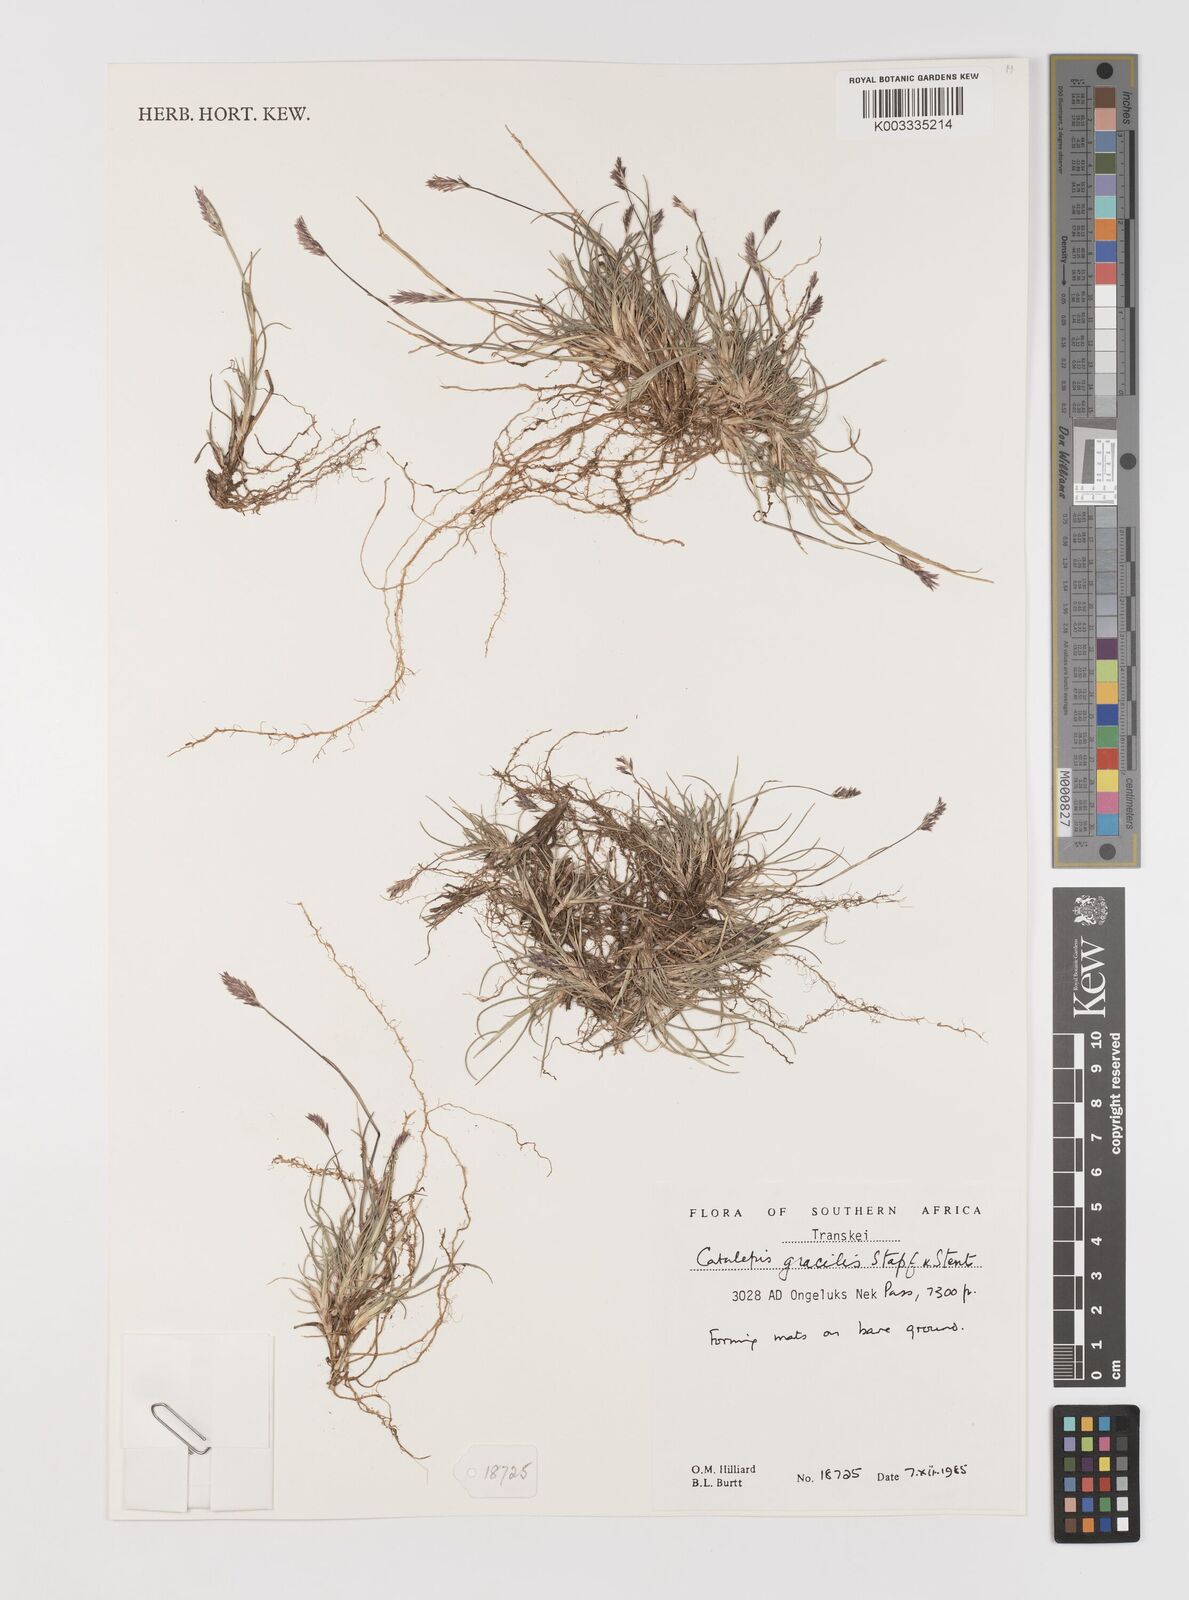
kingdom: Plantae
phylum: Tracheophyta
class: Liliopsida
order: Poales
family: Poaceae
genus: Catalepis
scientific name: Catalepis gracilis
